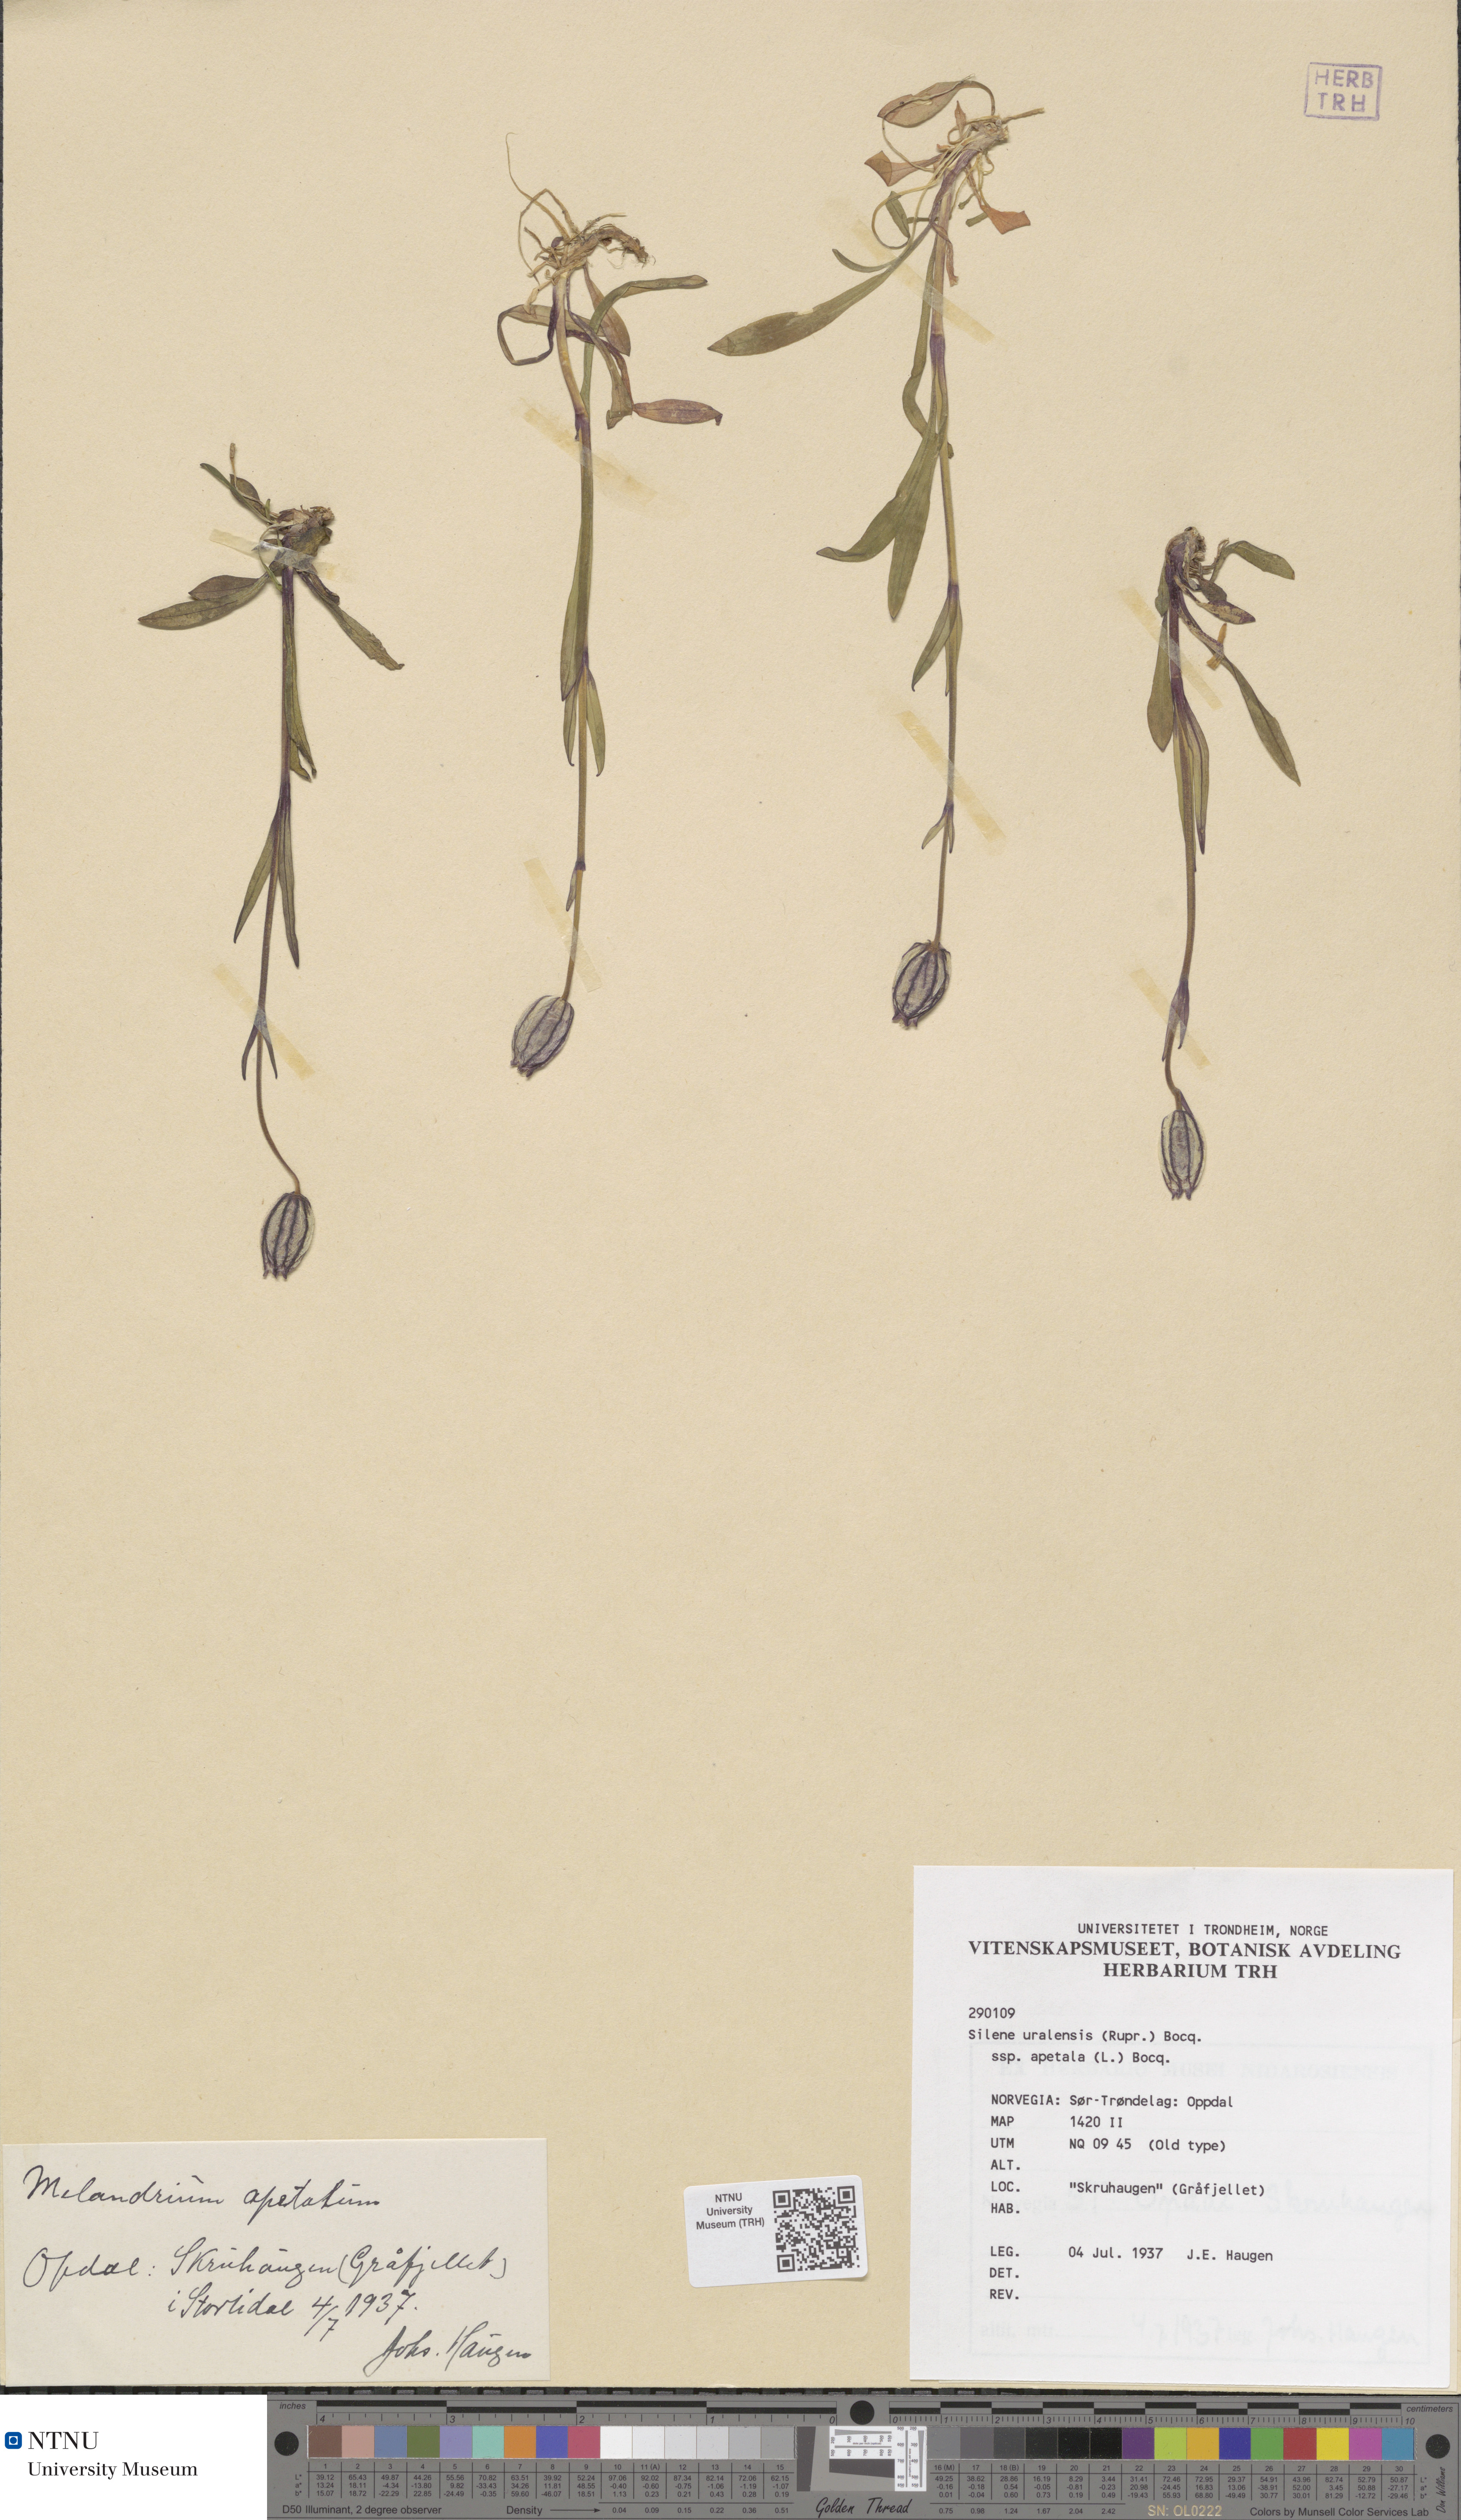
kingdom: Plantae
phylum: Tracheophyta
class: Magnoliopsida
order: Caryophyllales
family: Caryophyllaceae
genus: Silene
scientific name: Silene wahlbergella
